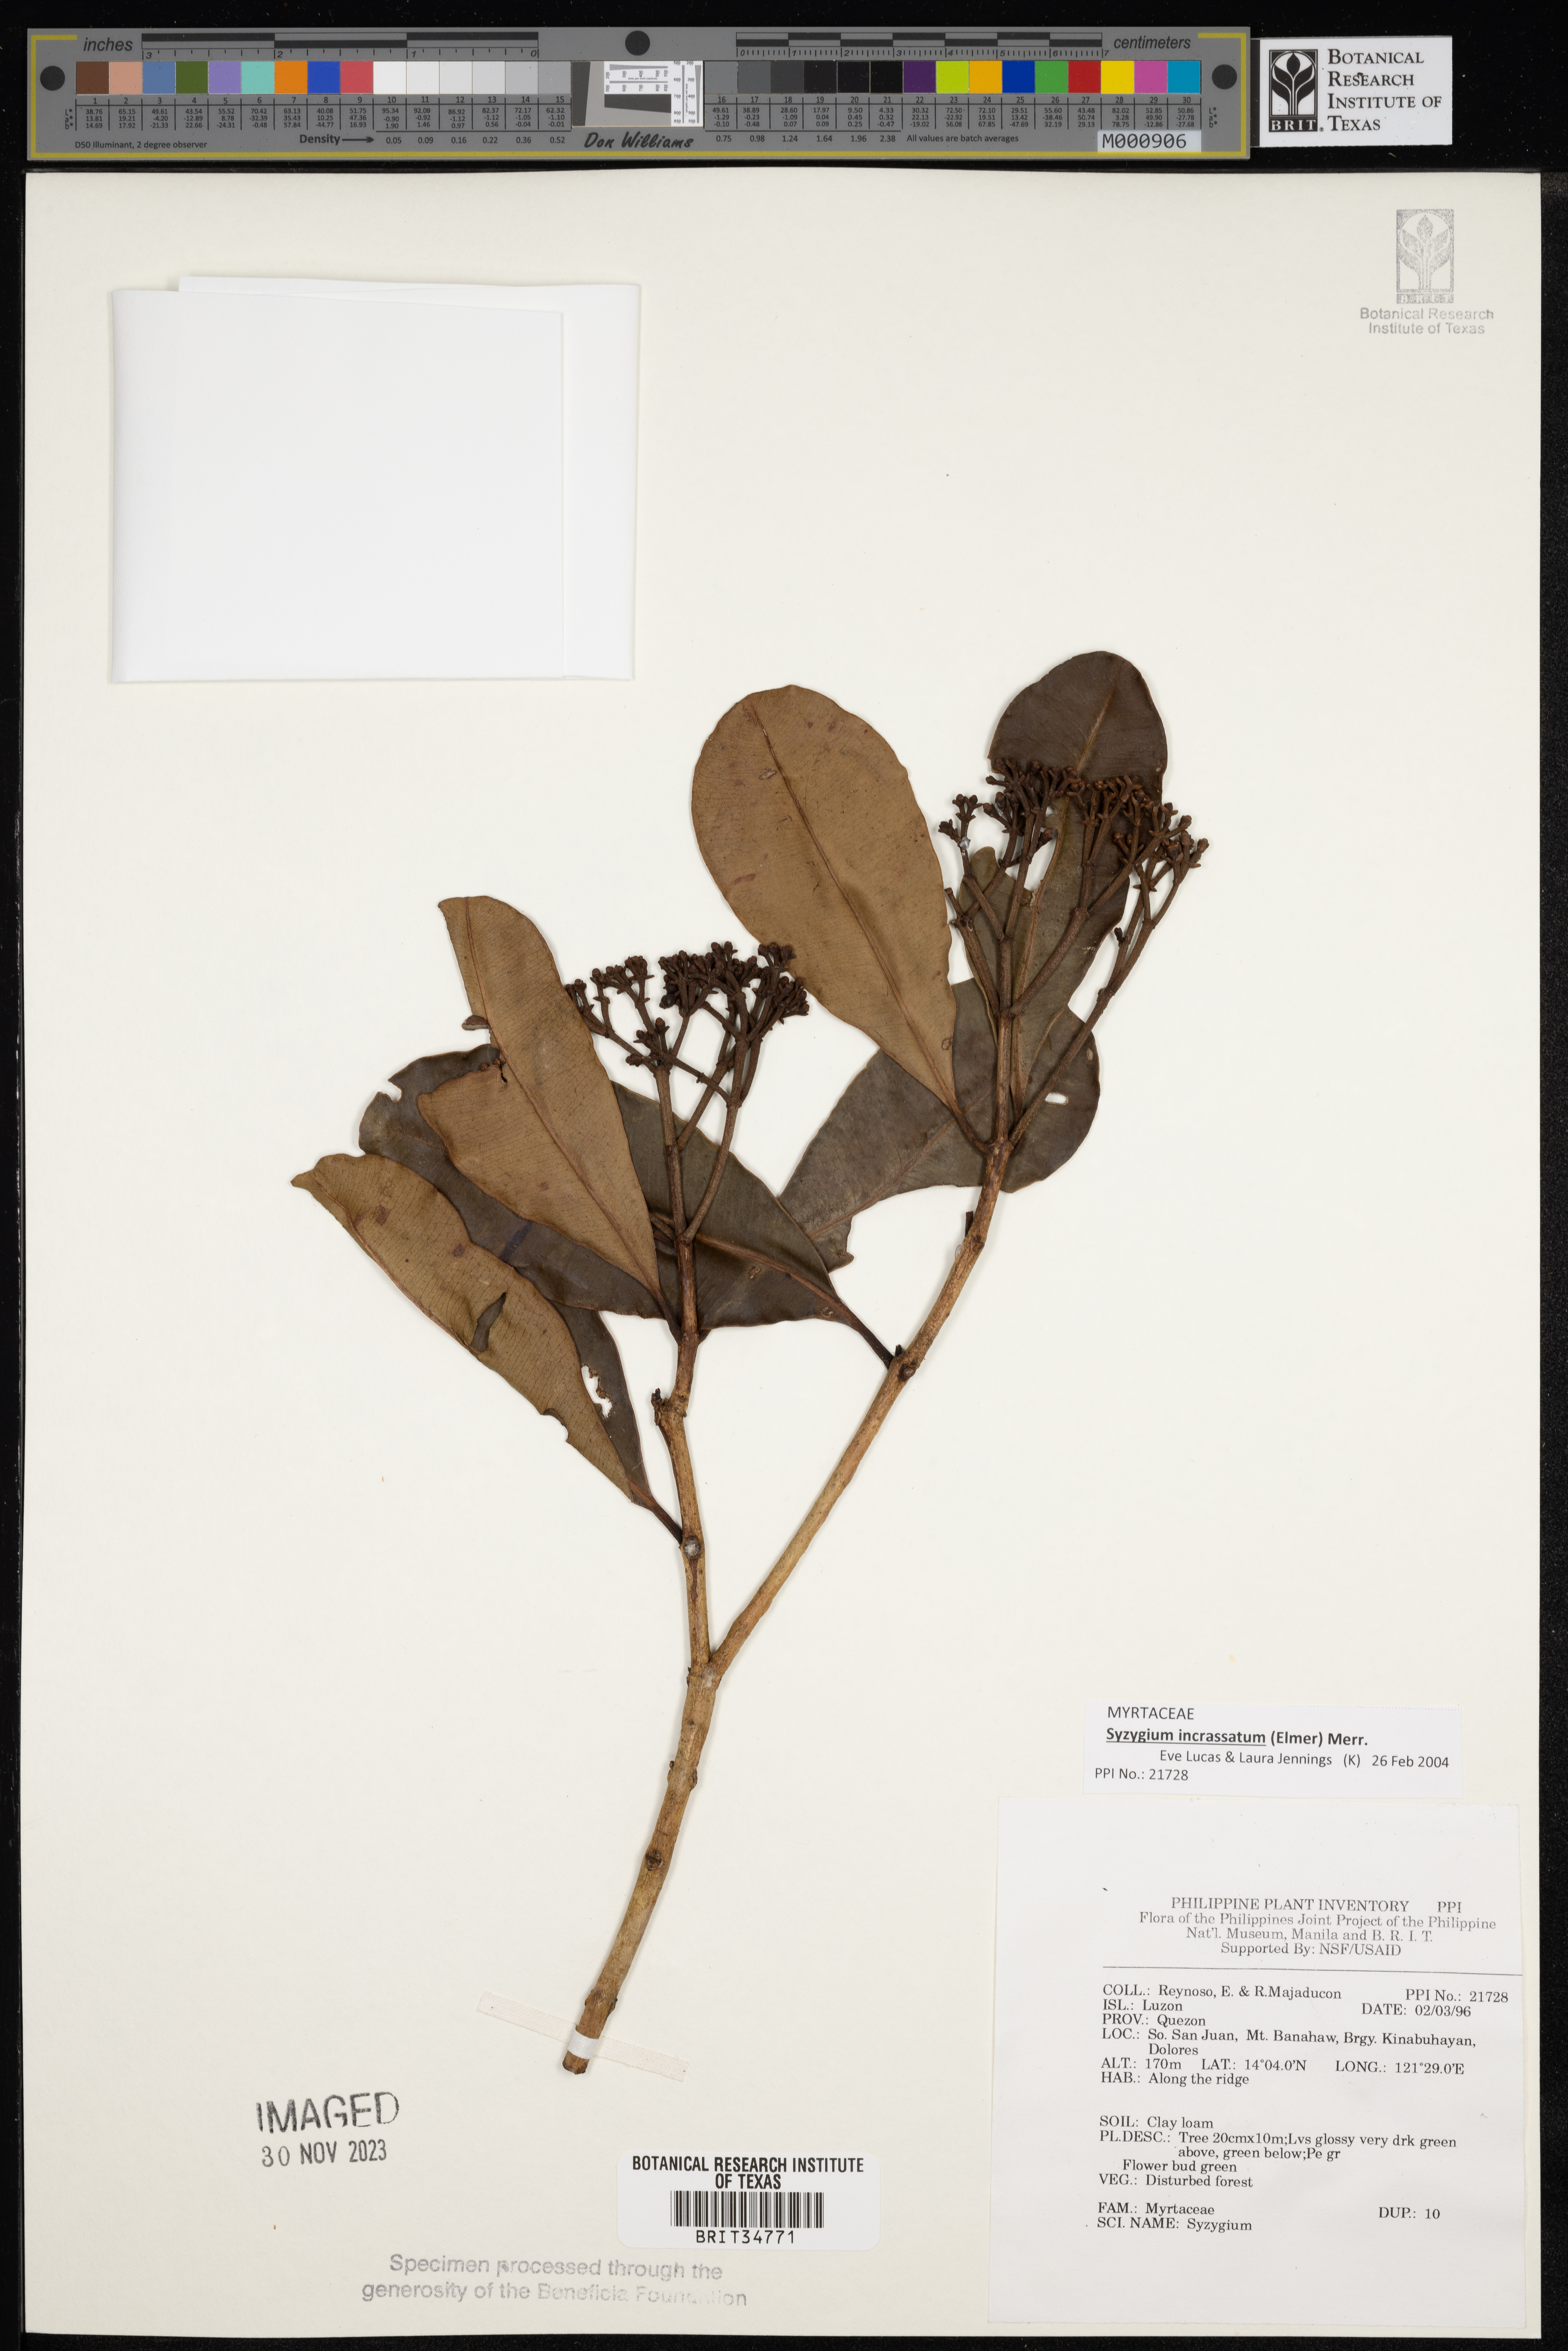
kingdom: Plantae
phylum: Tracheophyta
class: Magnoliopsida
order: Myrtales
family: Myrtaceae
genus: Syzygium
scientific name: Syzygium
